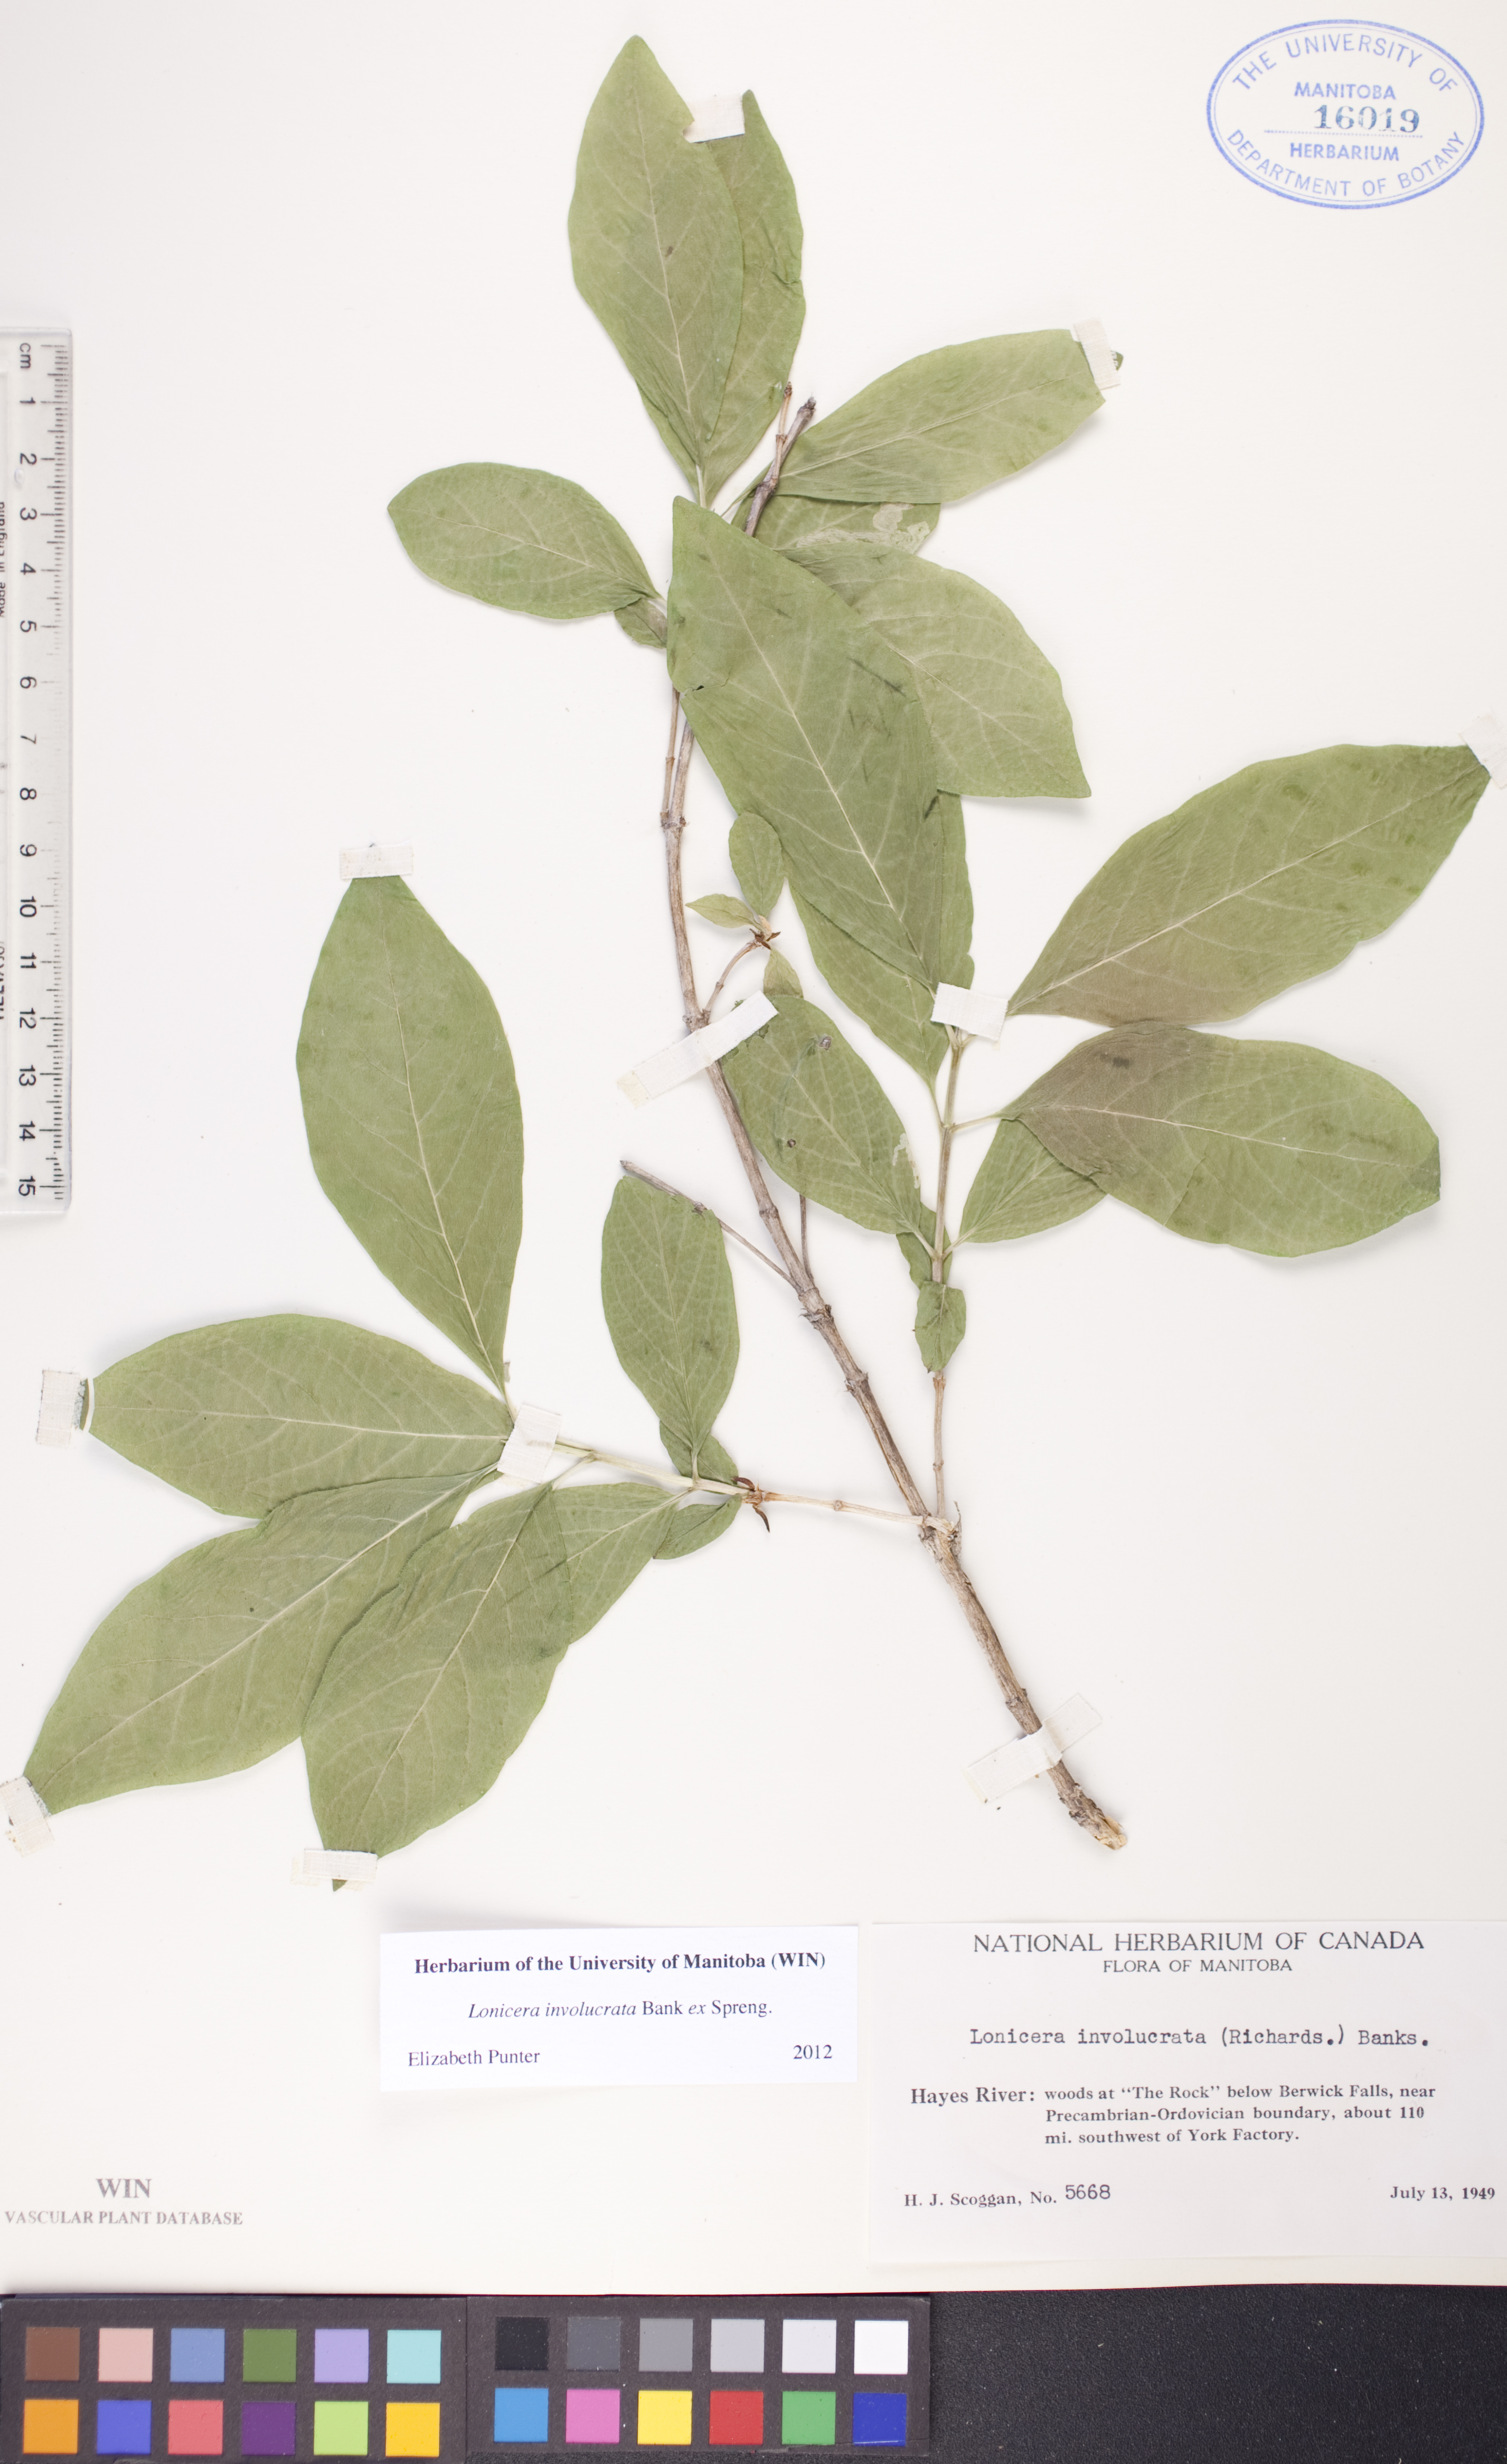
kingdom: Plantae
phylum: Tracheophyta
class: Magnoliopsida
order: Dipsacales
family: Caprifoliaceae
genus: Lonicera
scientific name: Lonicera involucrata
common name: Californian honeysuckle
